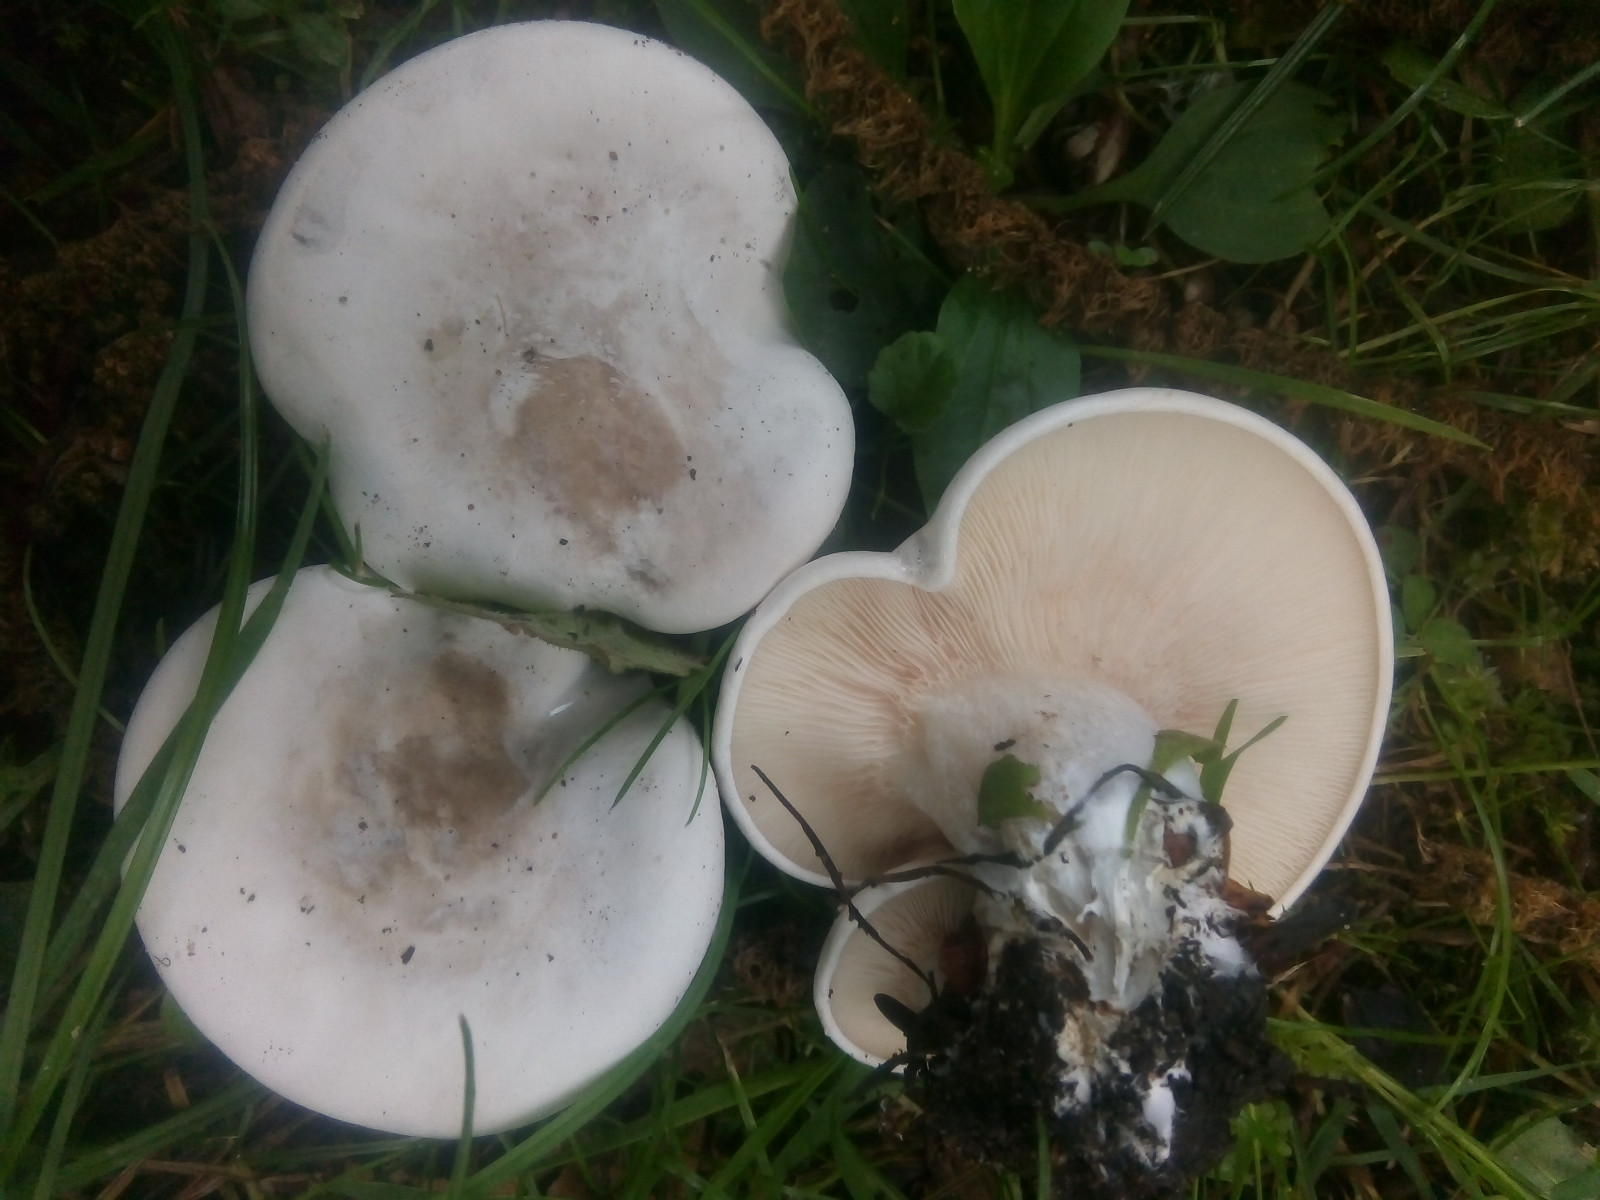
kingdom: Fungi
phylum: Basidiomycota
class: Agaricomycetes
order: Agaricales
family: Entolomataceae
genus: Clitopilus
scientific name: Clitopilus prunulus
